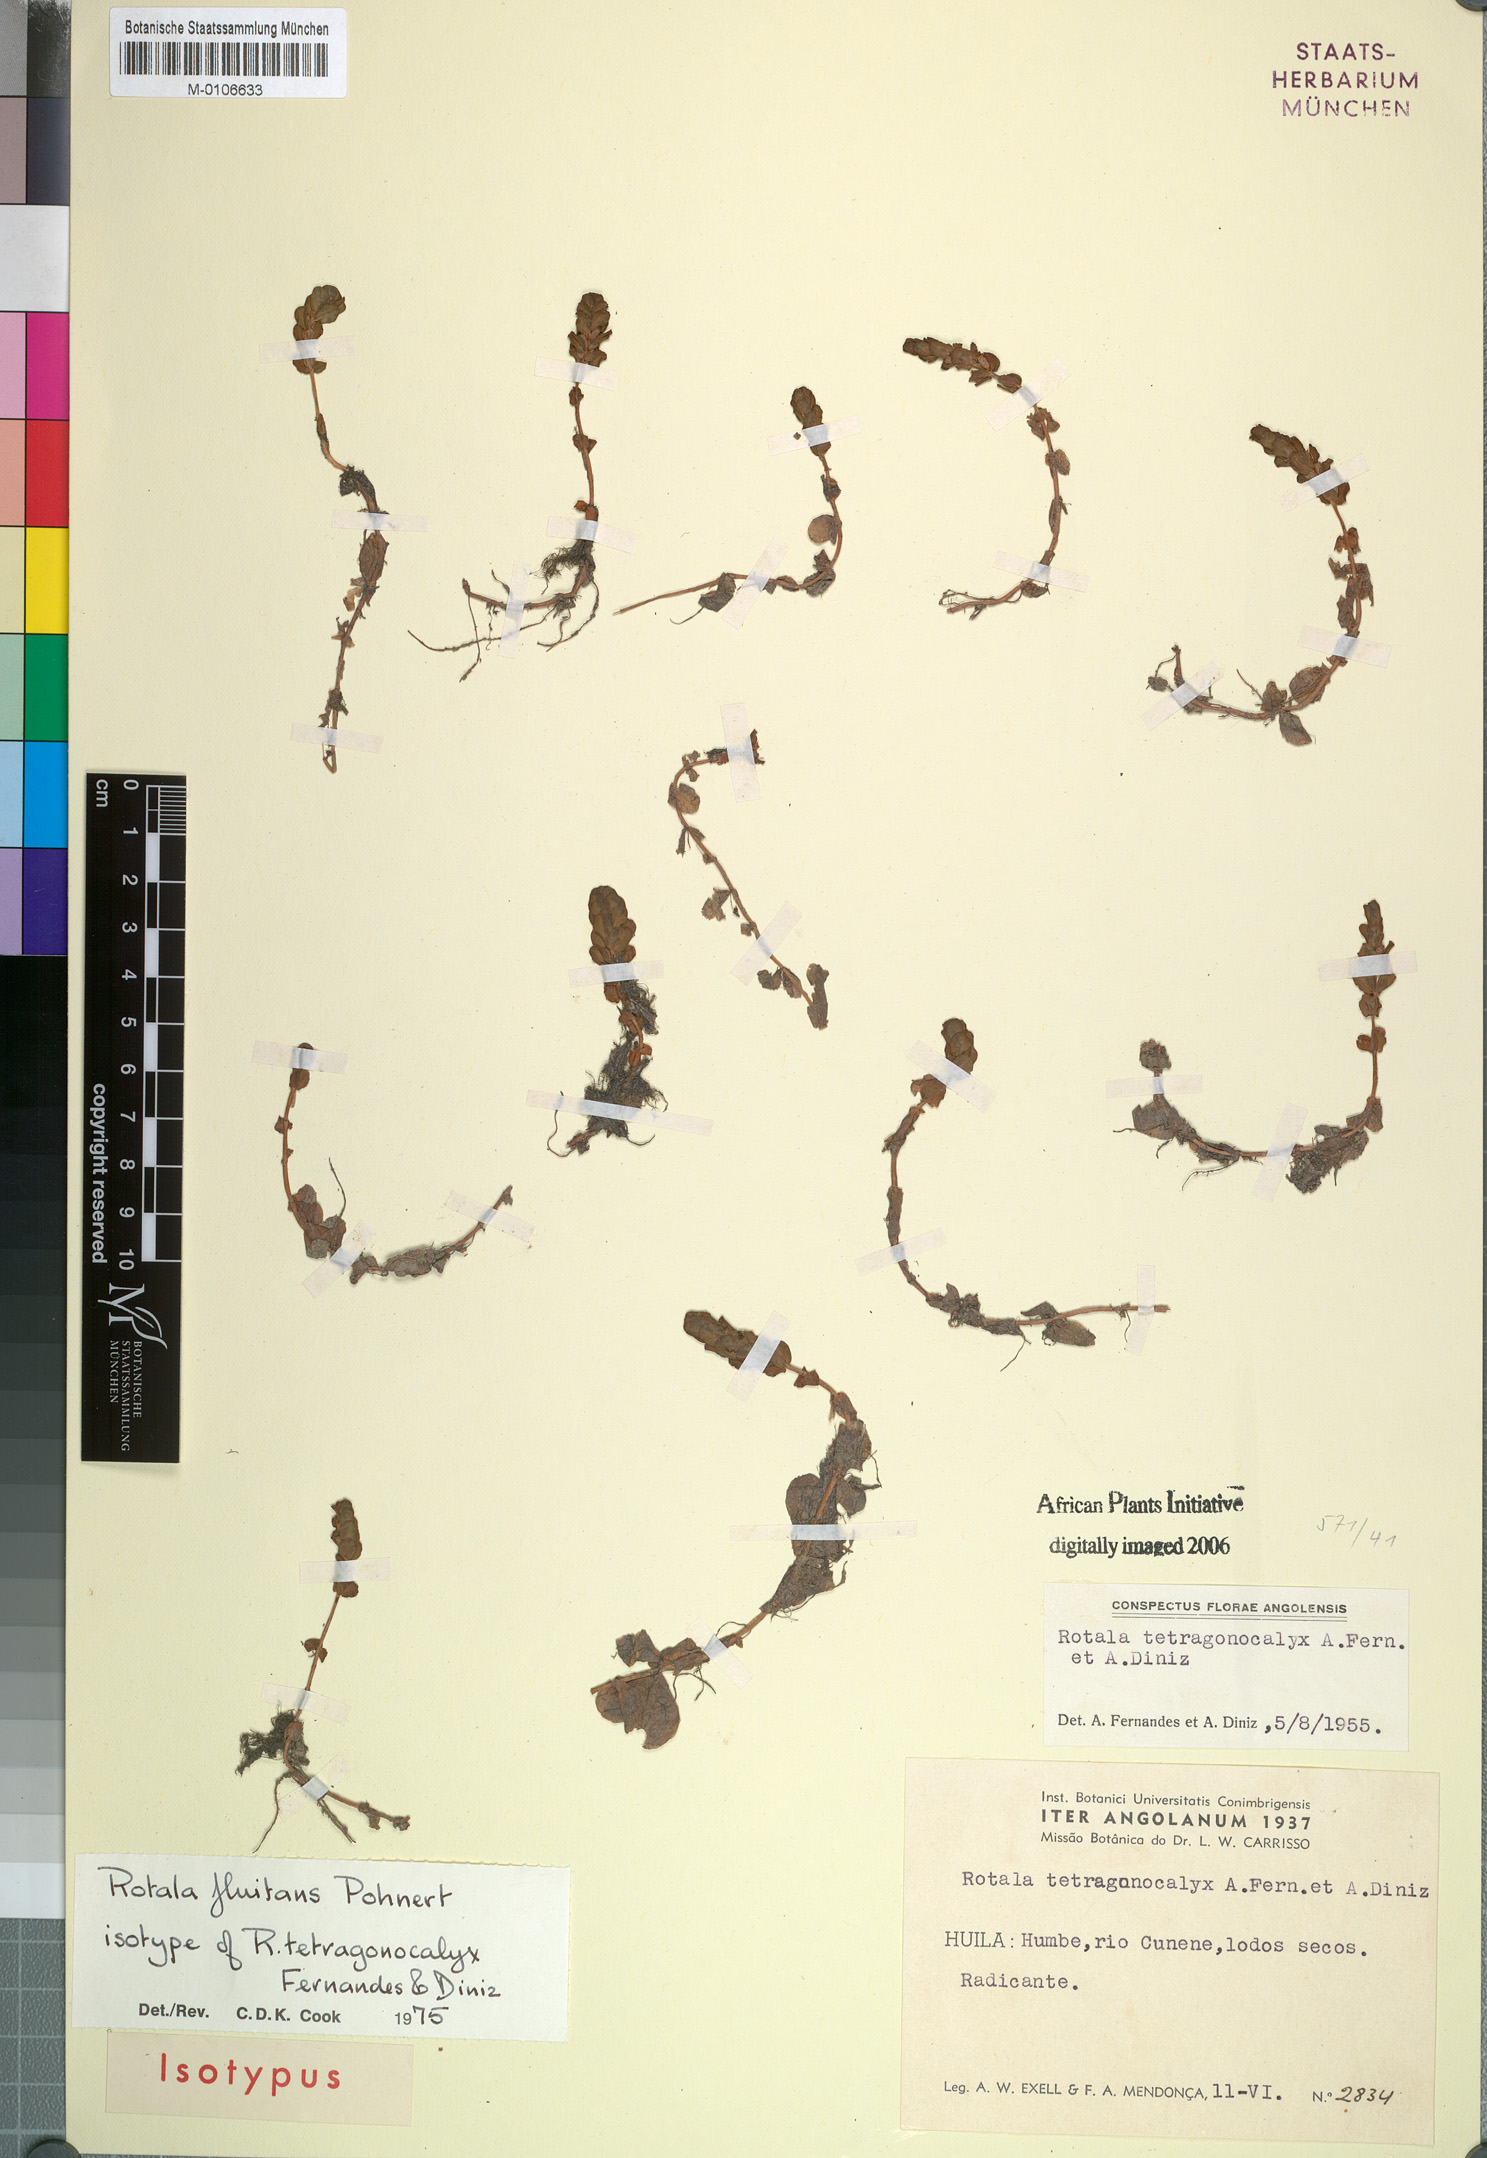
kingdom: Plantae
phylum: Tracheophyta
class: Magnoliopsida
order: Myrtales
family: Lythraceae
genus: Rotala
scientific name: Rotala fluitans
